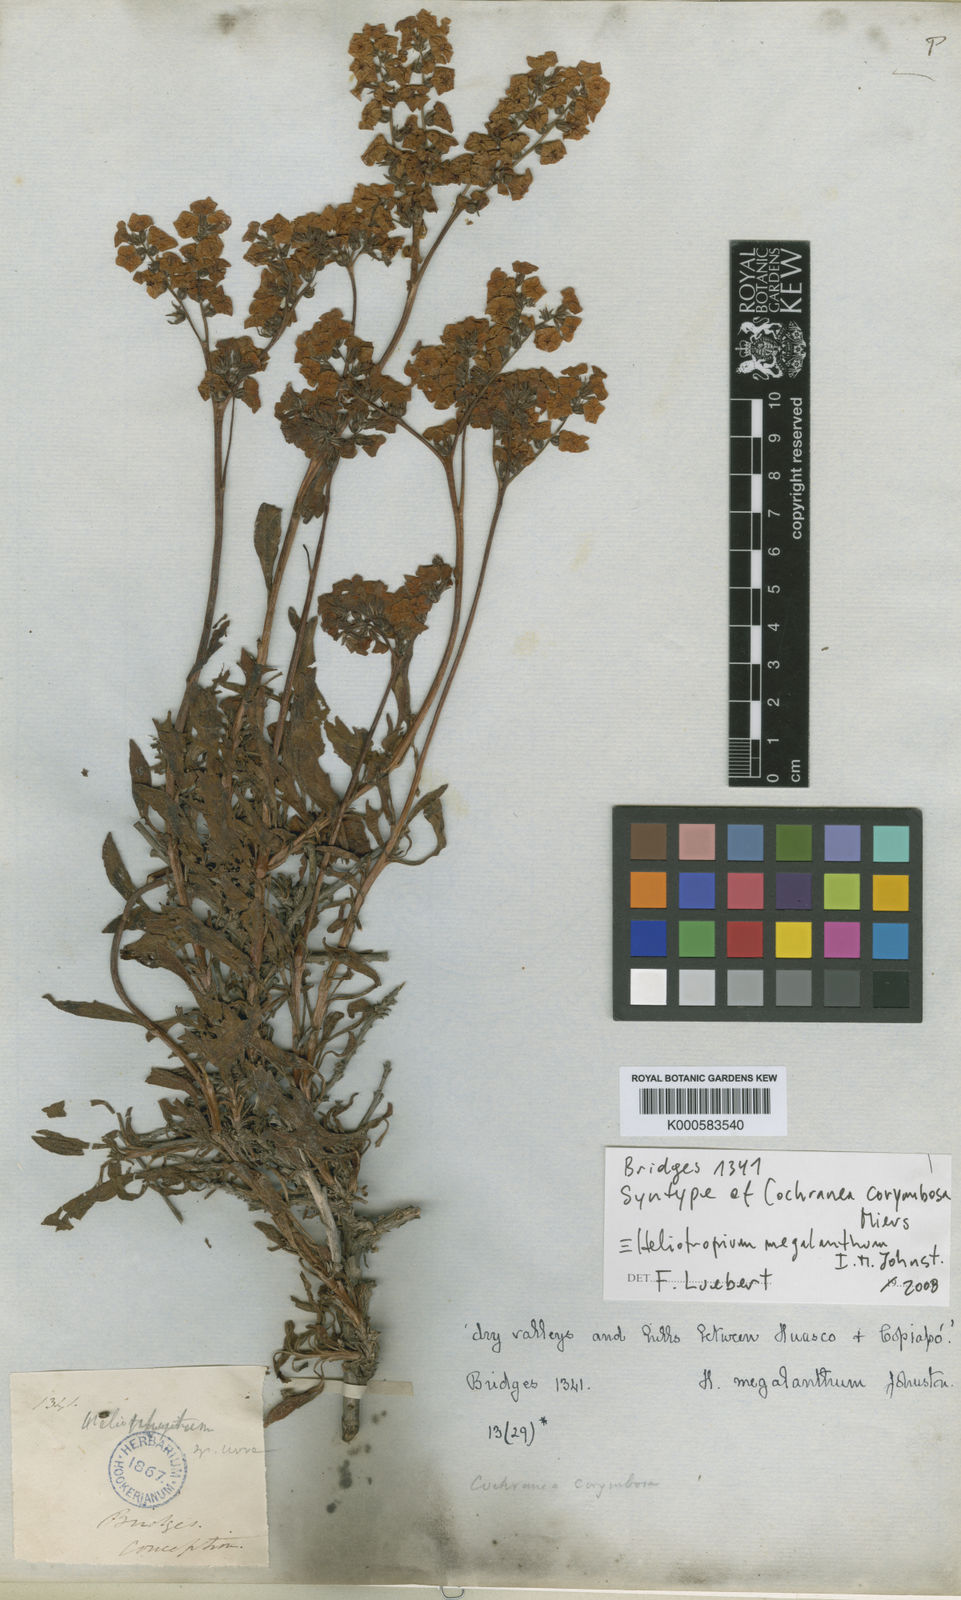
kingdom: Plantae
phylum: Tracheophyta
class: Magnoliopsida
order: Boraginales
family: Heliotropiaceae
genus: Heliotropium
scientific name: Heliotropium floridum
